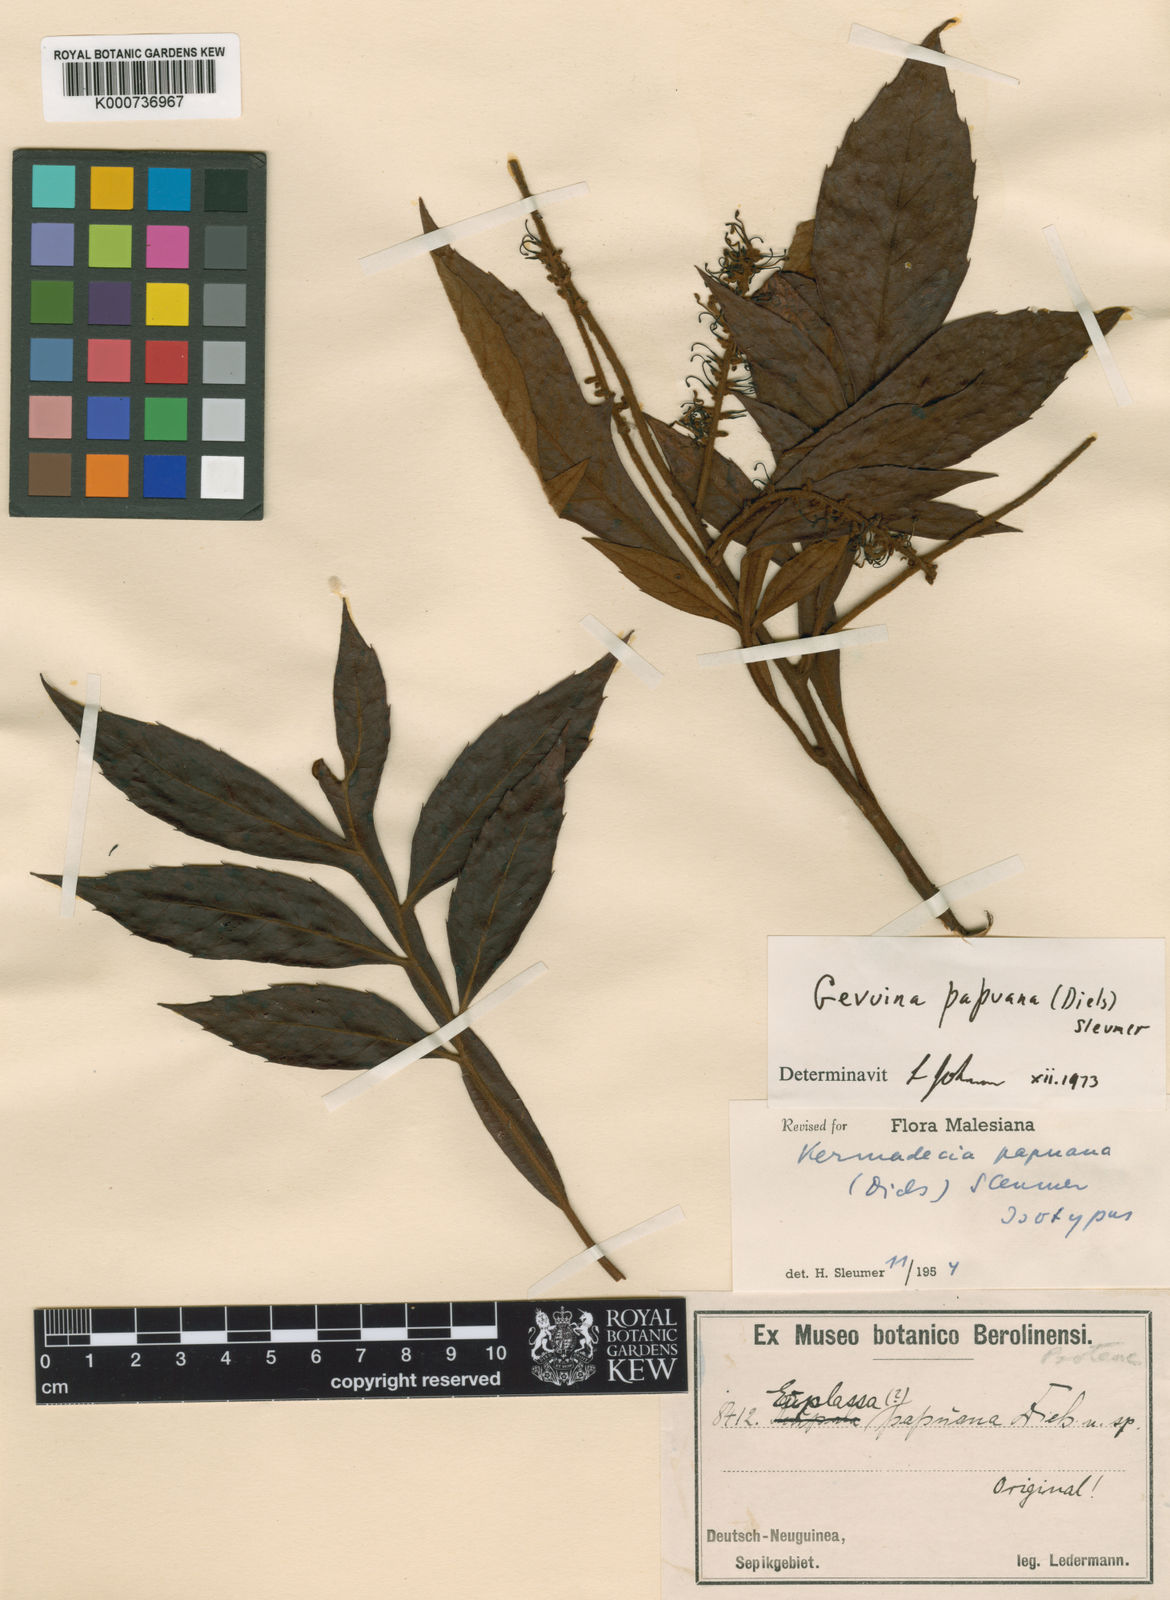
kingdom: Plantae
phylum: Tracheophyta
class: Magnoliopsida
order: Proteales
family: Proteaceae
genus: Turrillia
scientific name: Turrillia papuana
